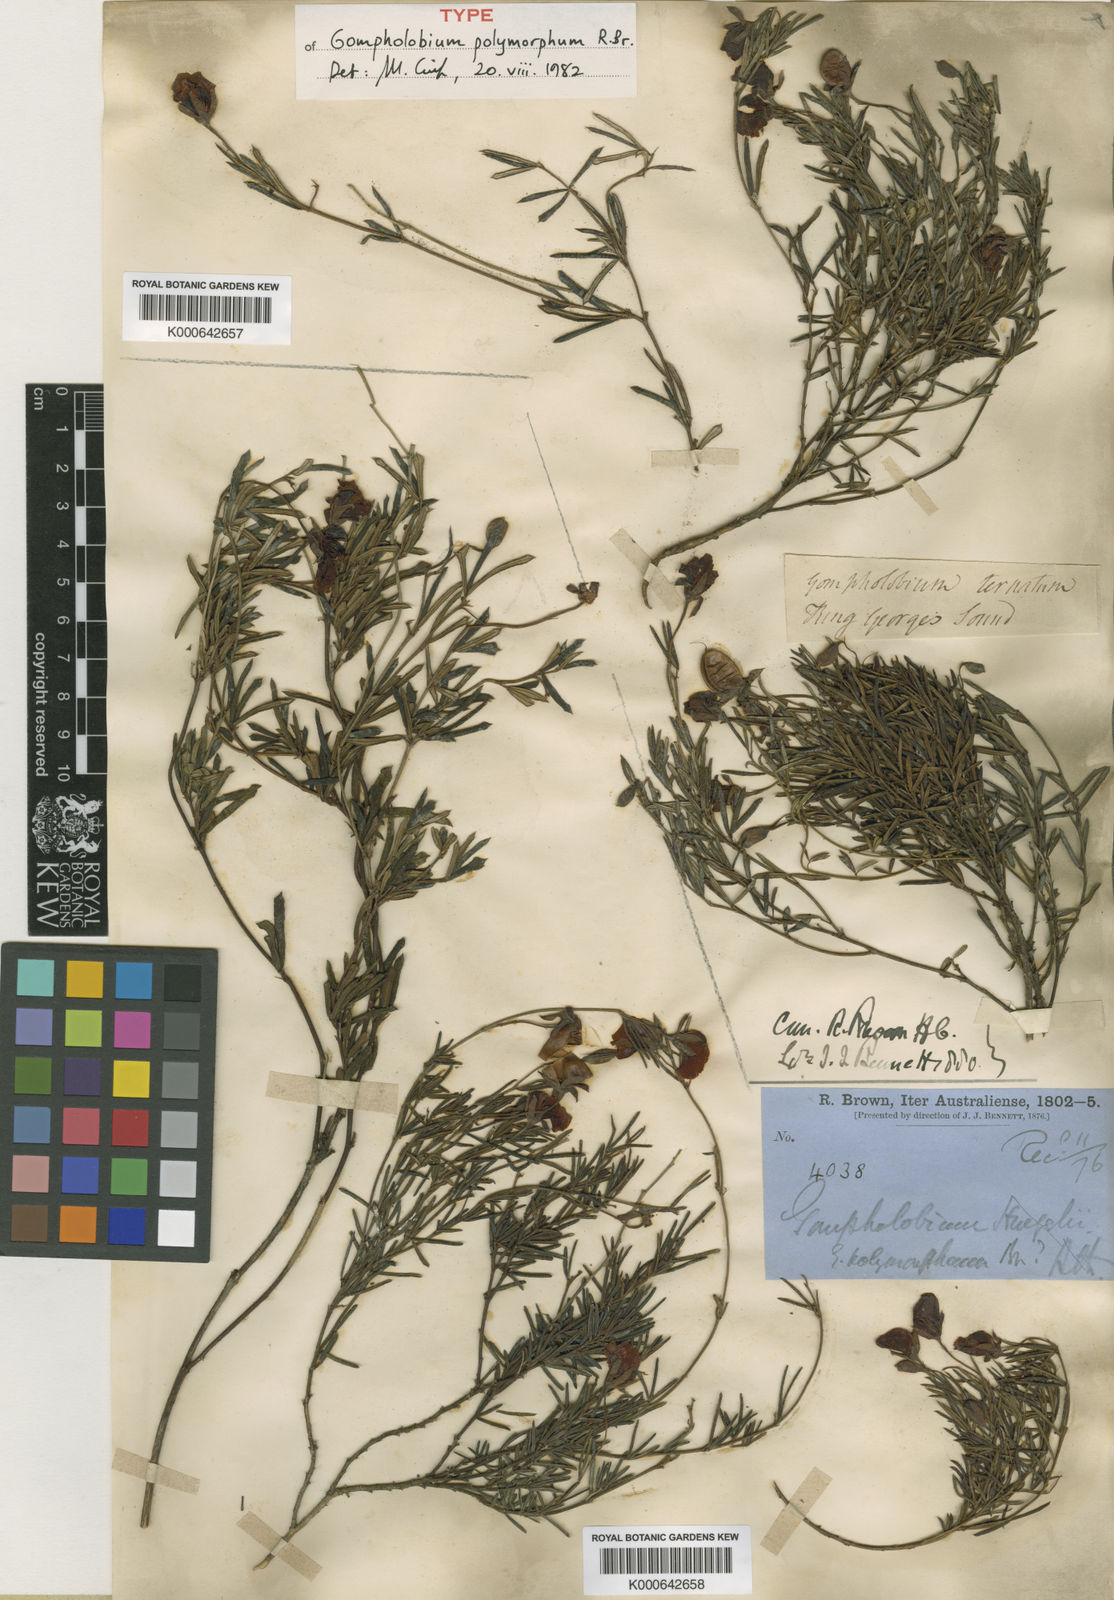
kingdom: Plantae
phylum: Tracheophyta
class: Magnoliopsida
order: Fabales
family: Fabaceae
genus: Gompholobium
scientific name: Gompholobium polymorphum
